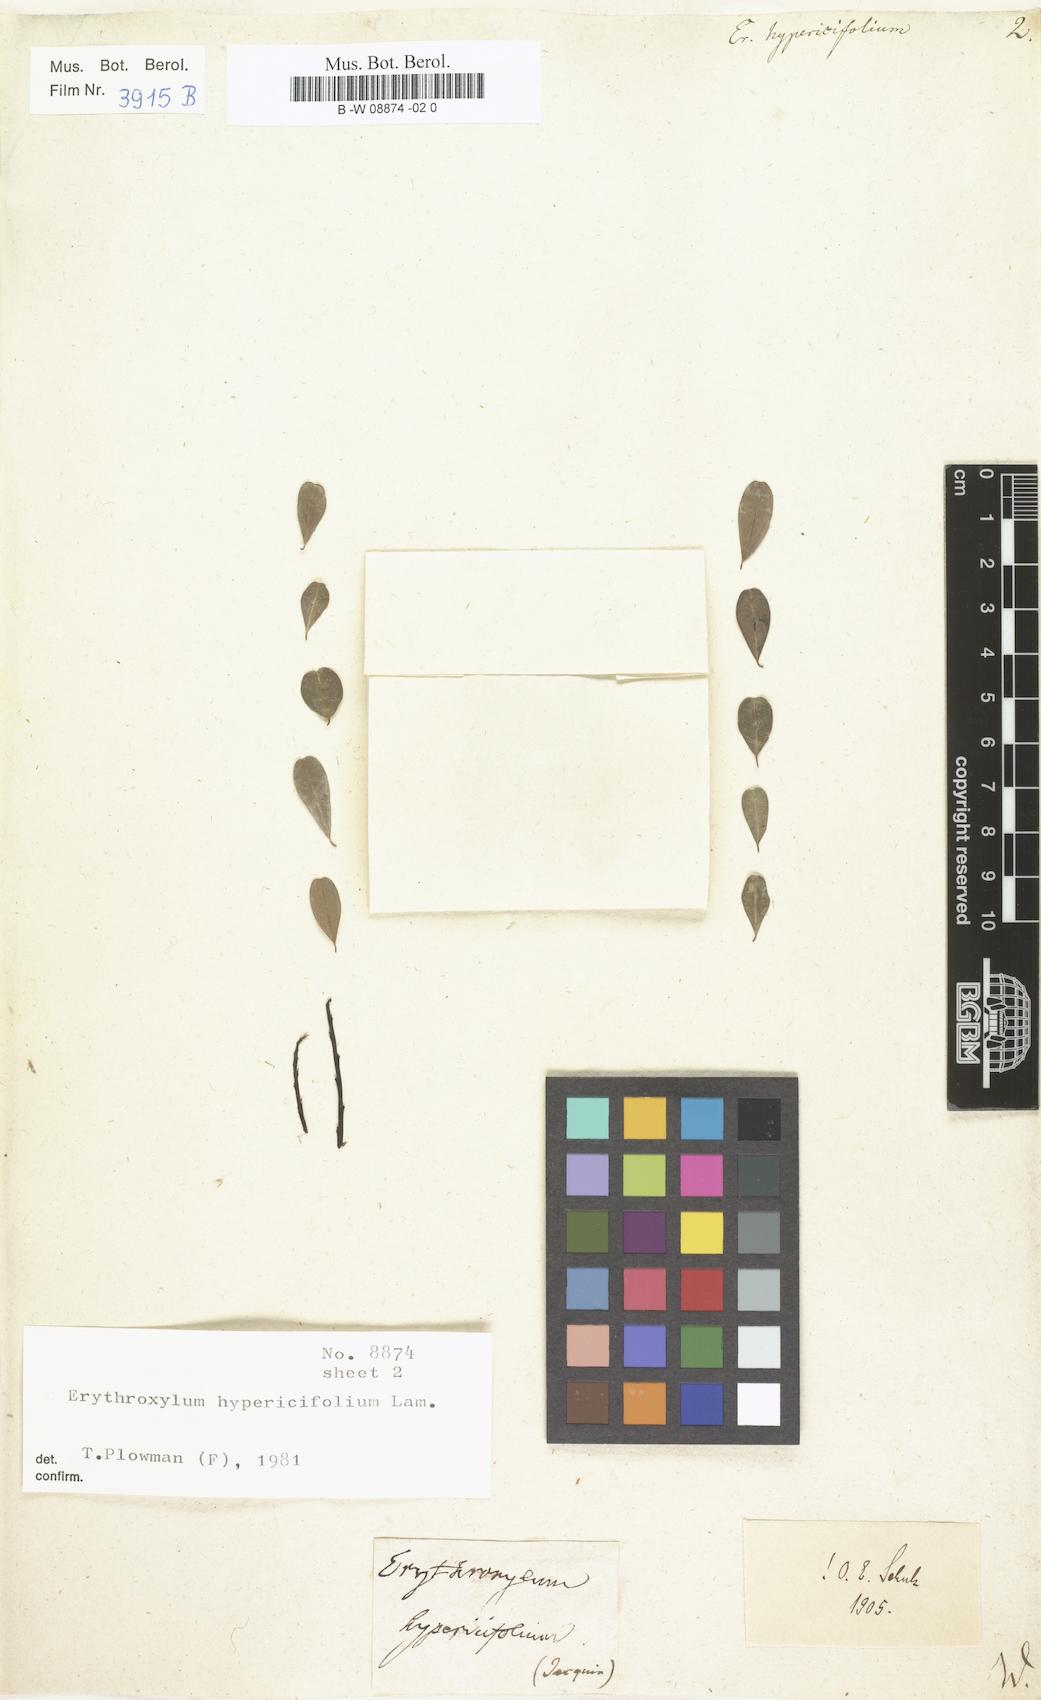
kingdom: Plantae
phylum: Tracheophyta
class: Magnoliopsida
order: Malpighiales
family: Erythroxylaceae
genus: Erythroxylum
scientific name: Erythroxylum hypericifolium
